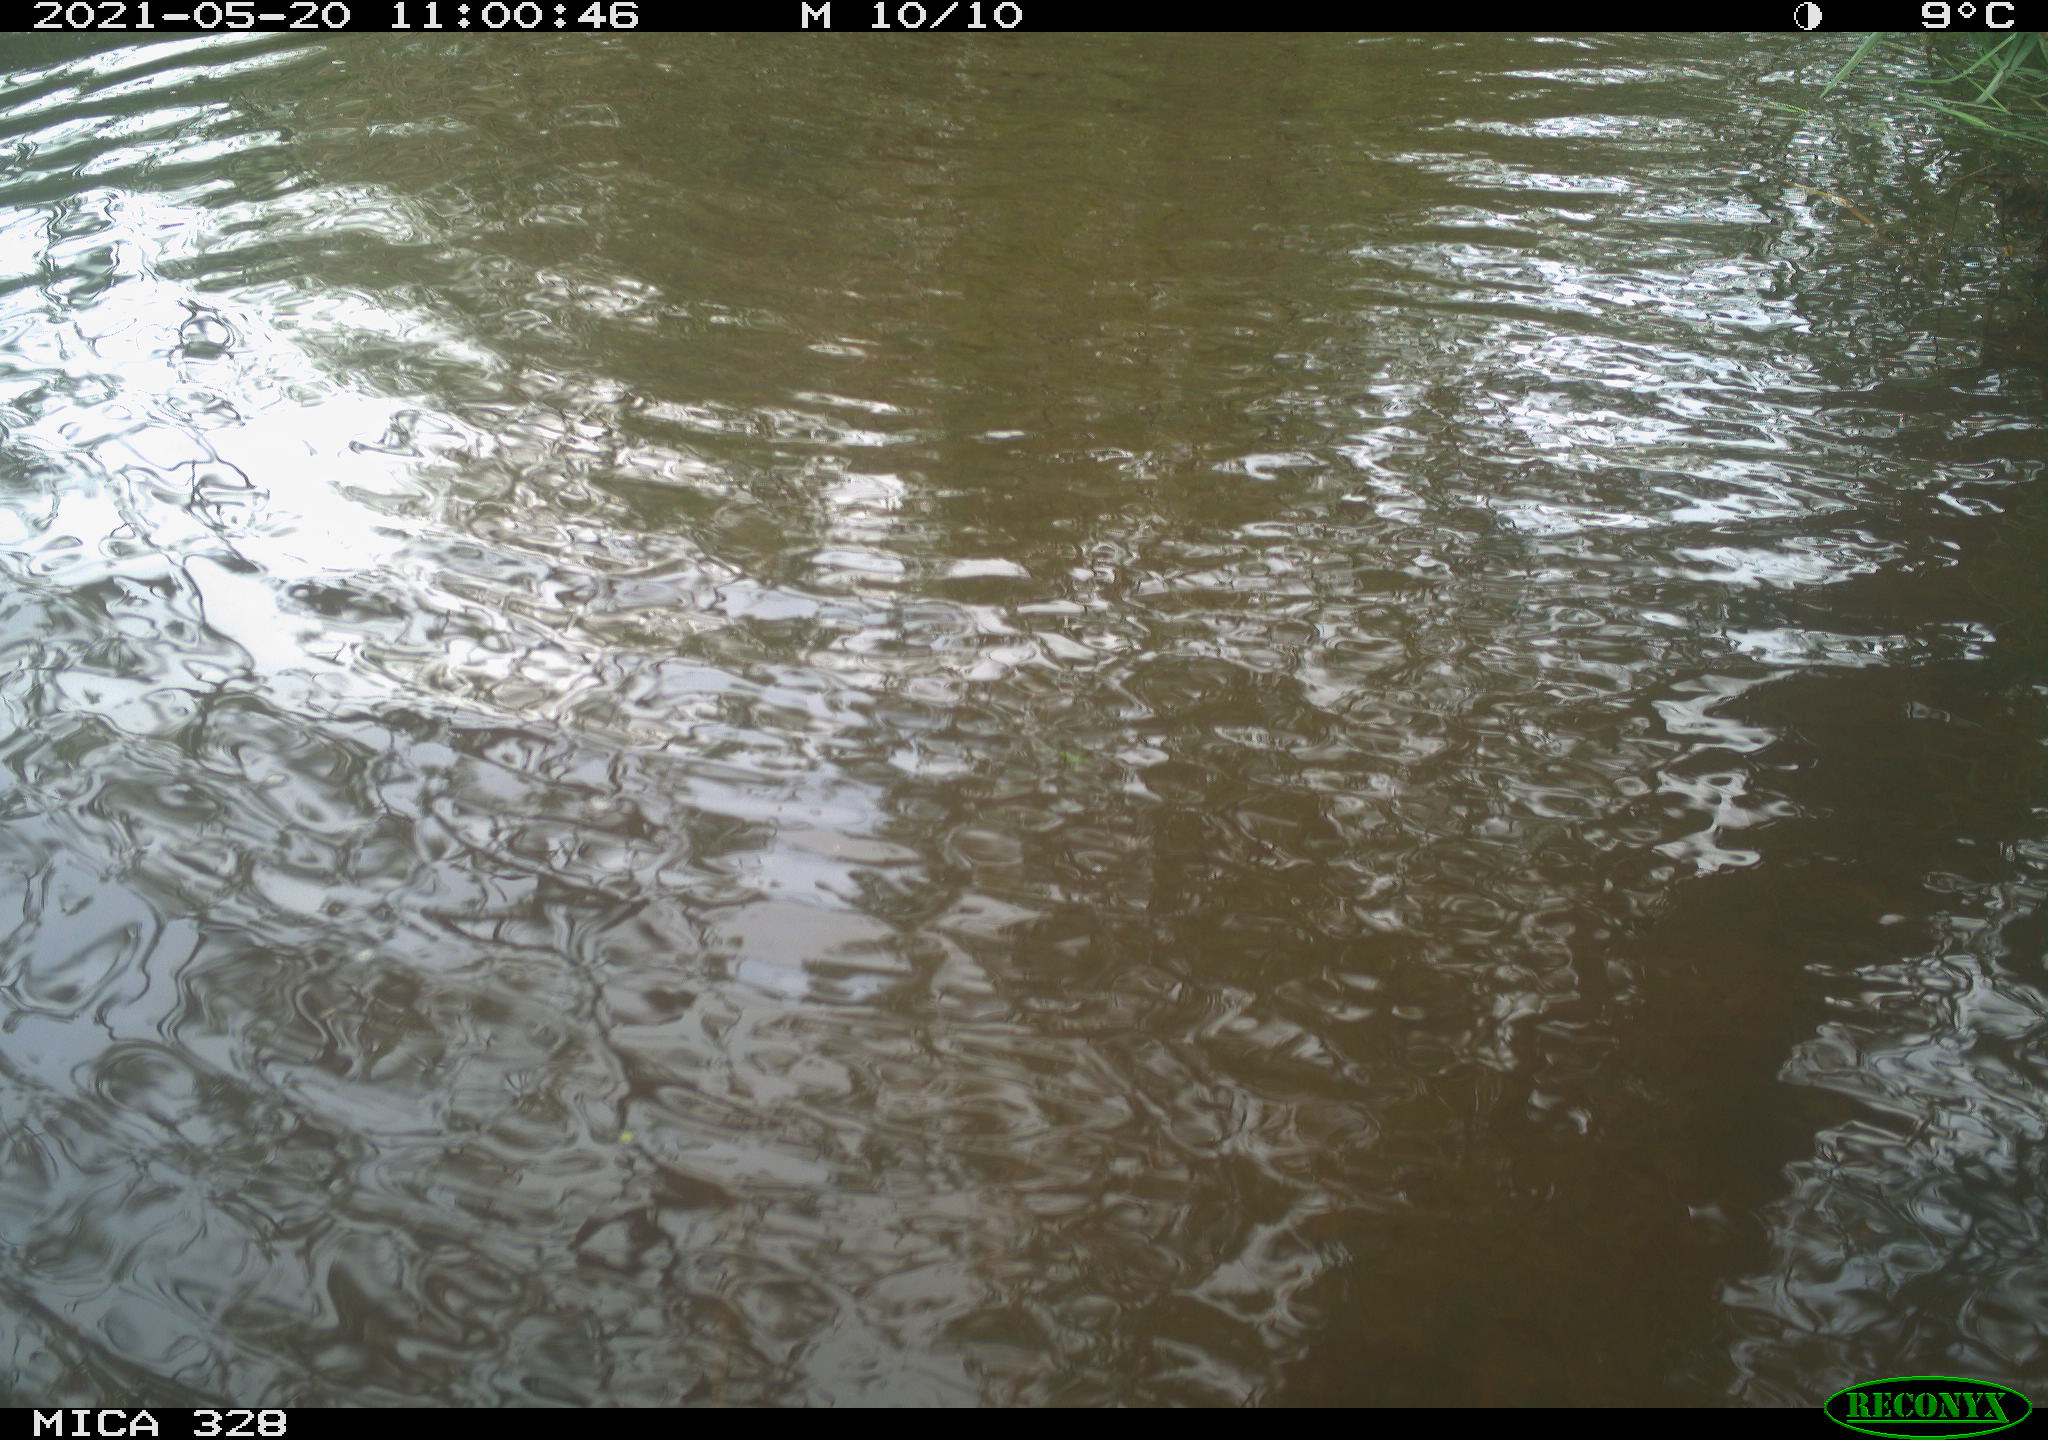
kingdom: Animalia
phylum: Chordata
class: Mammalia
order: Rodentia
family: Cricetidae
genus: Ondatra
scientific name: Ondatra zibethicus
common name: Muskrat
